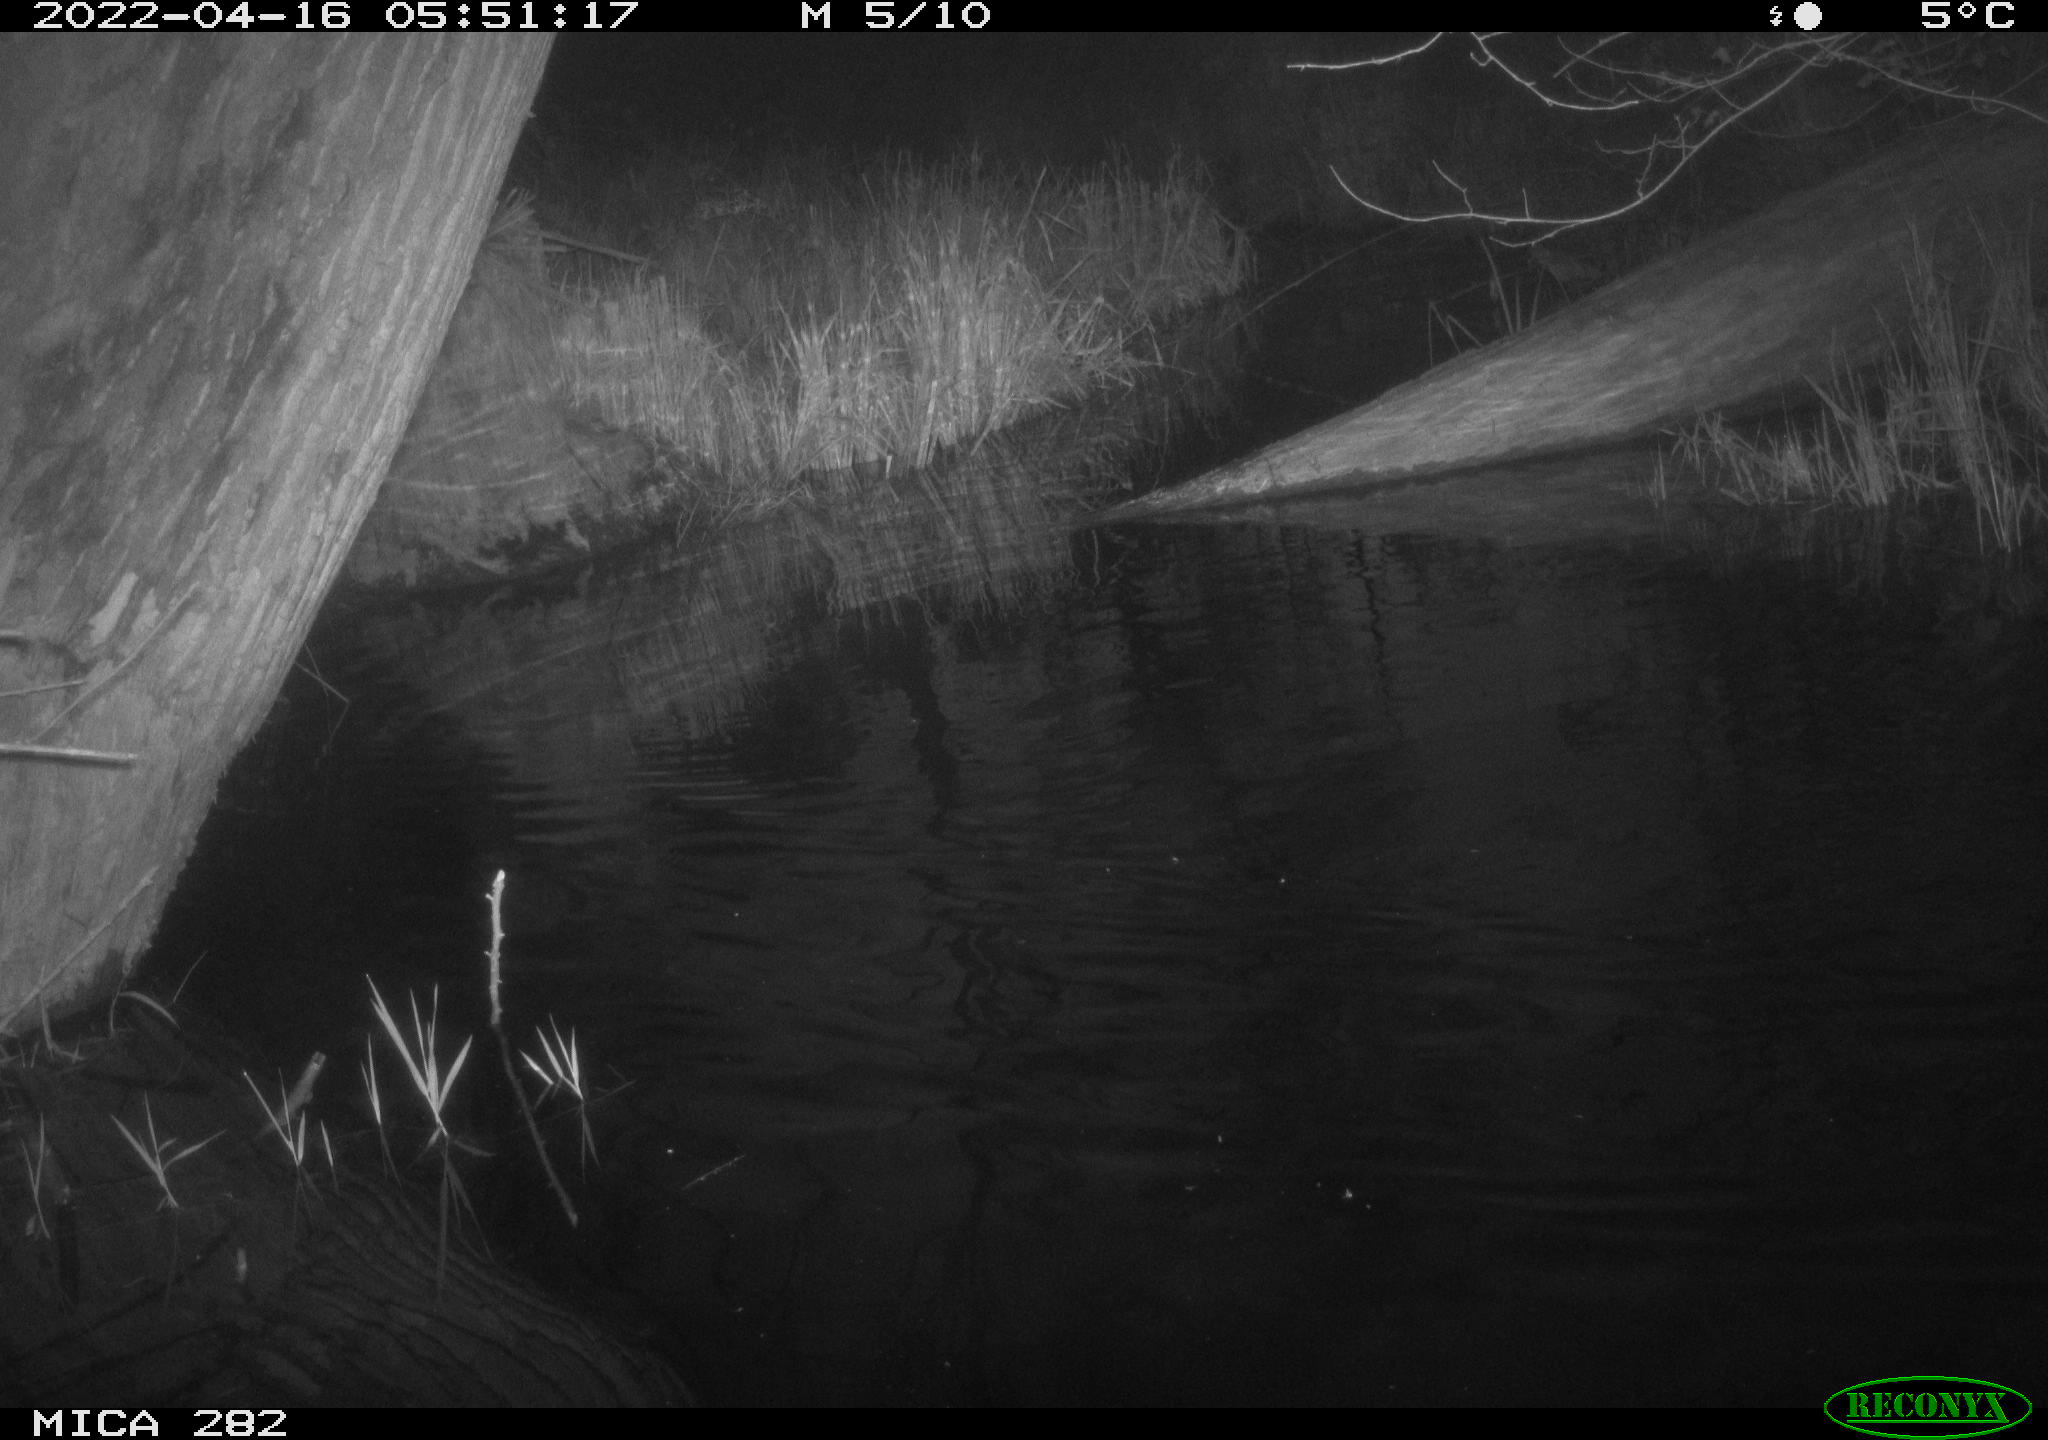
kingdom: Animalia
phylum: Chordata
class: Aves
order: Anseriformes
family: Anatidae
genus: Anas
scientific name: Anas platyrhynchos
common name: Mallard
